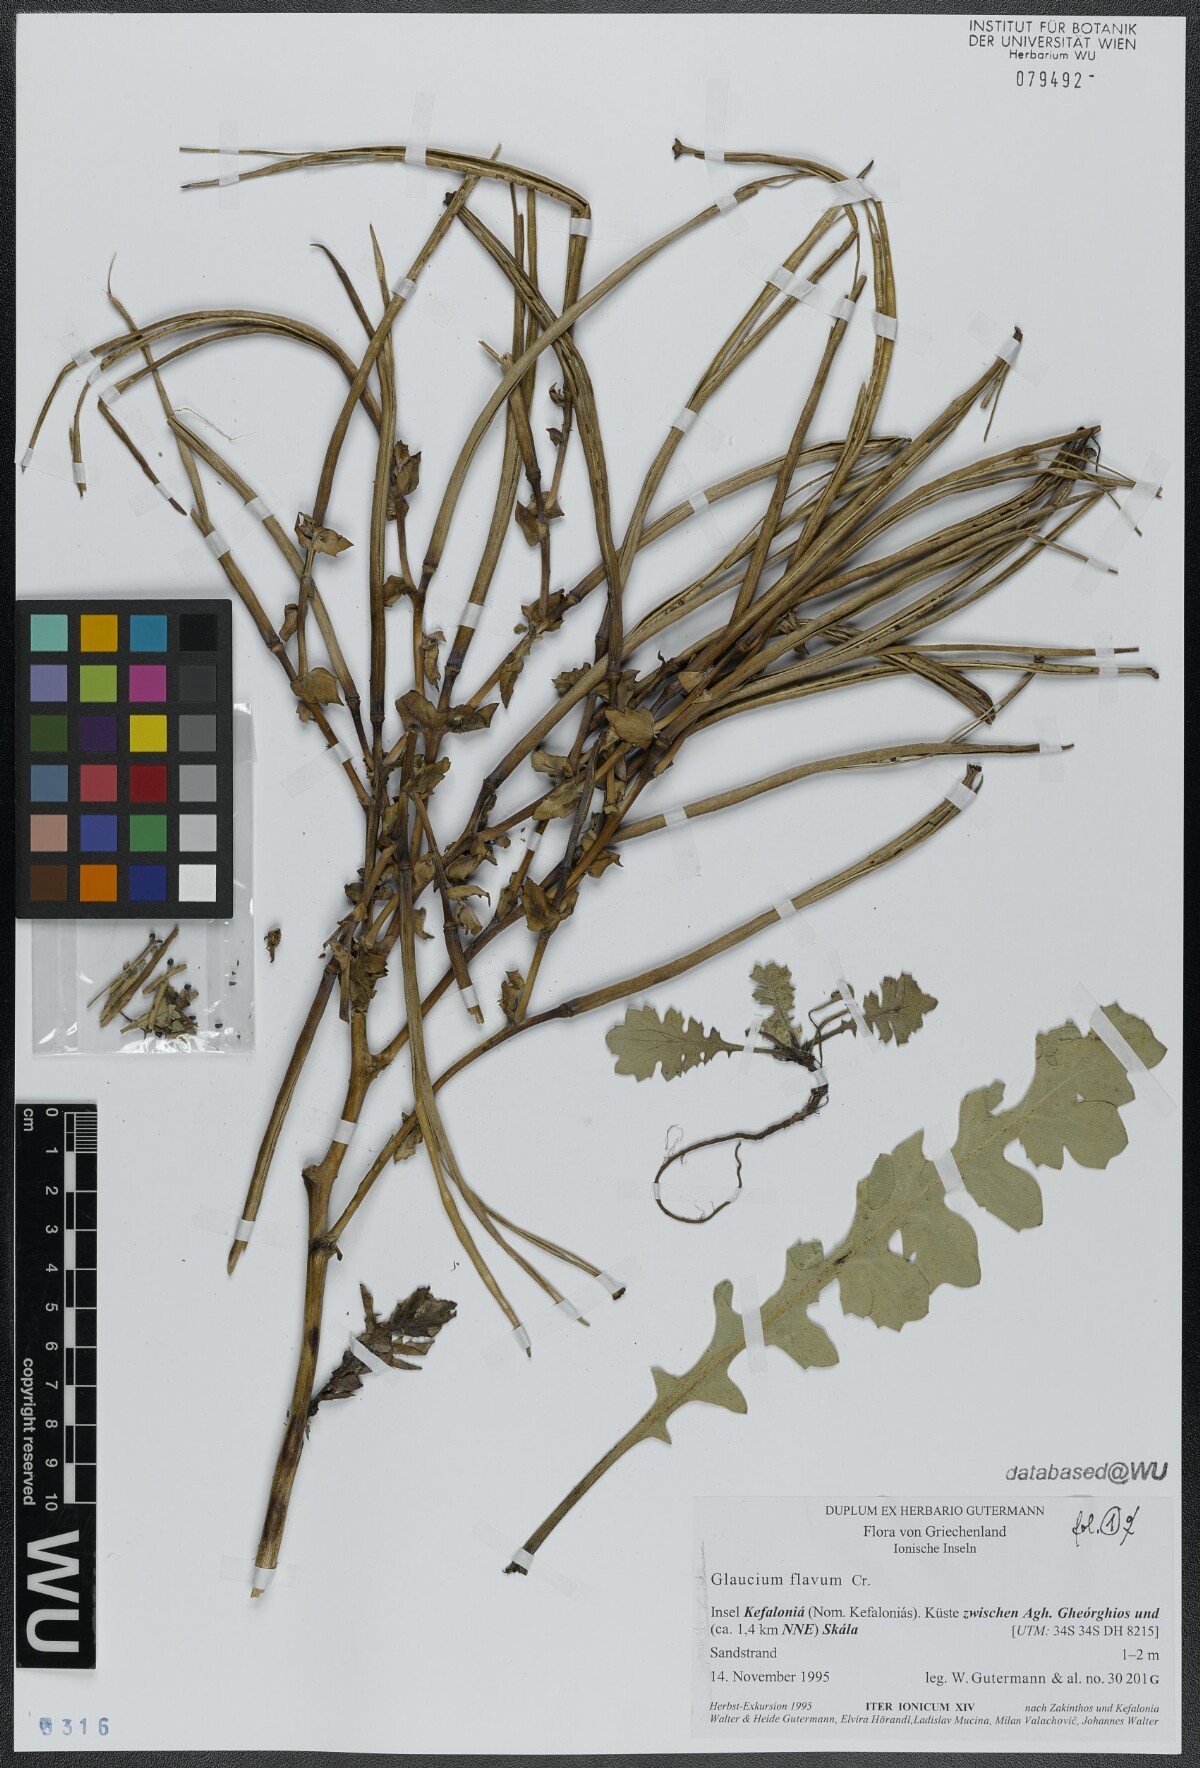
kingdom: Plantae
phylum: Tracheophyta
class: Magnoliopsida
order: Ranunculales
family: Papaveraceae
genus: Glaucium
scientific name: Glaucium flavum
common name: Yellow horned-poppy
